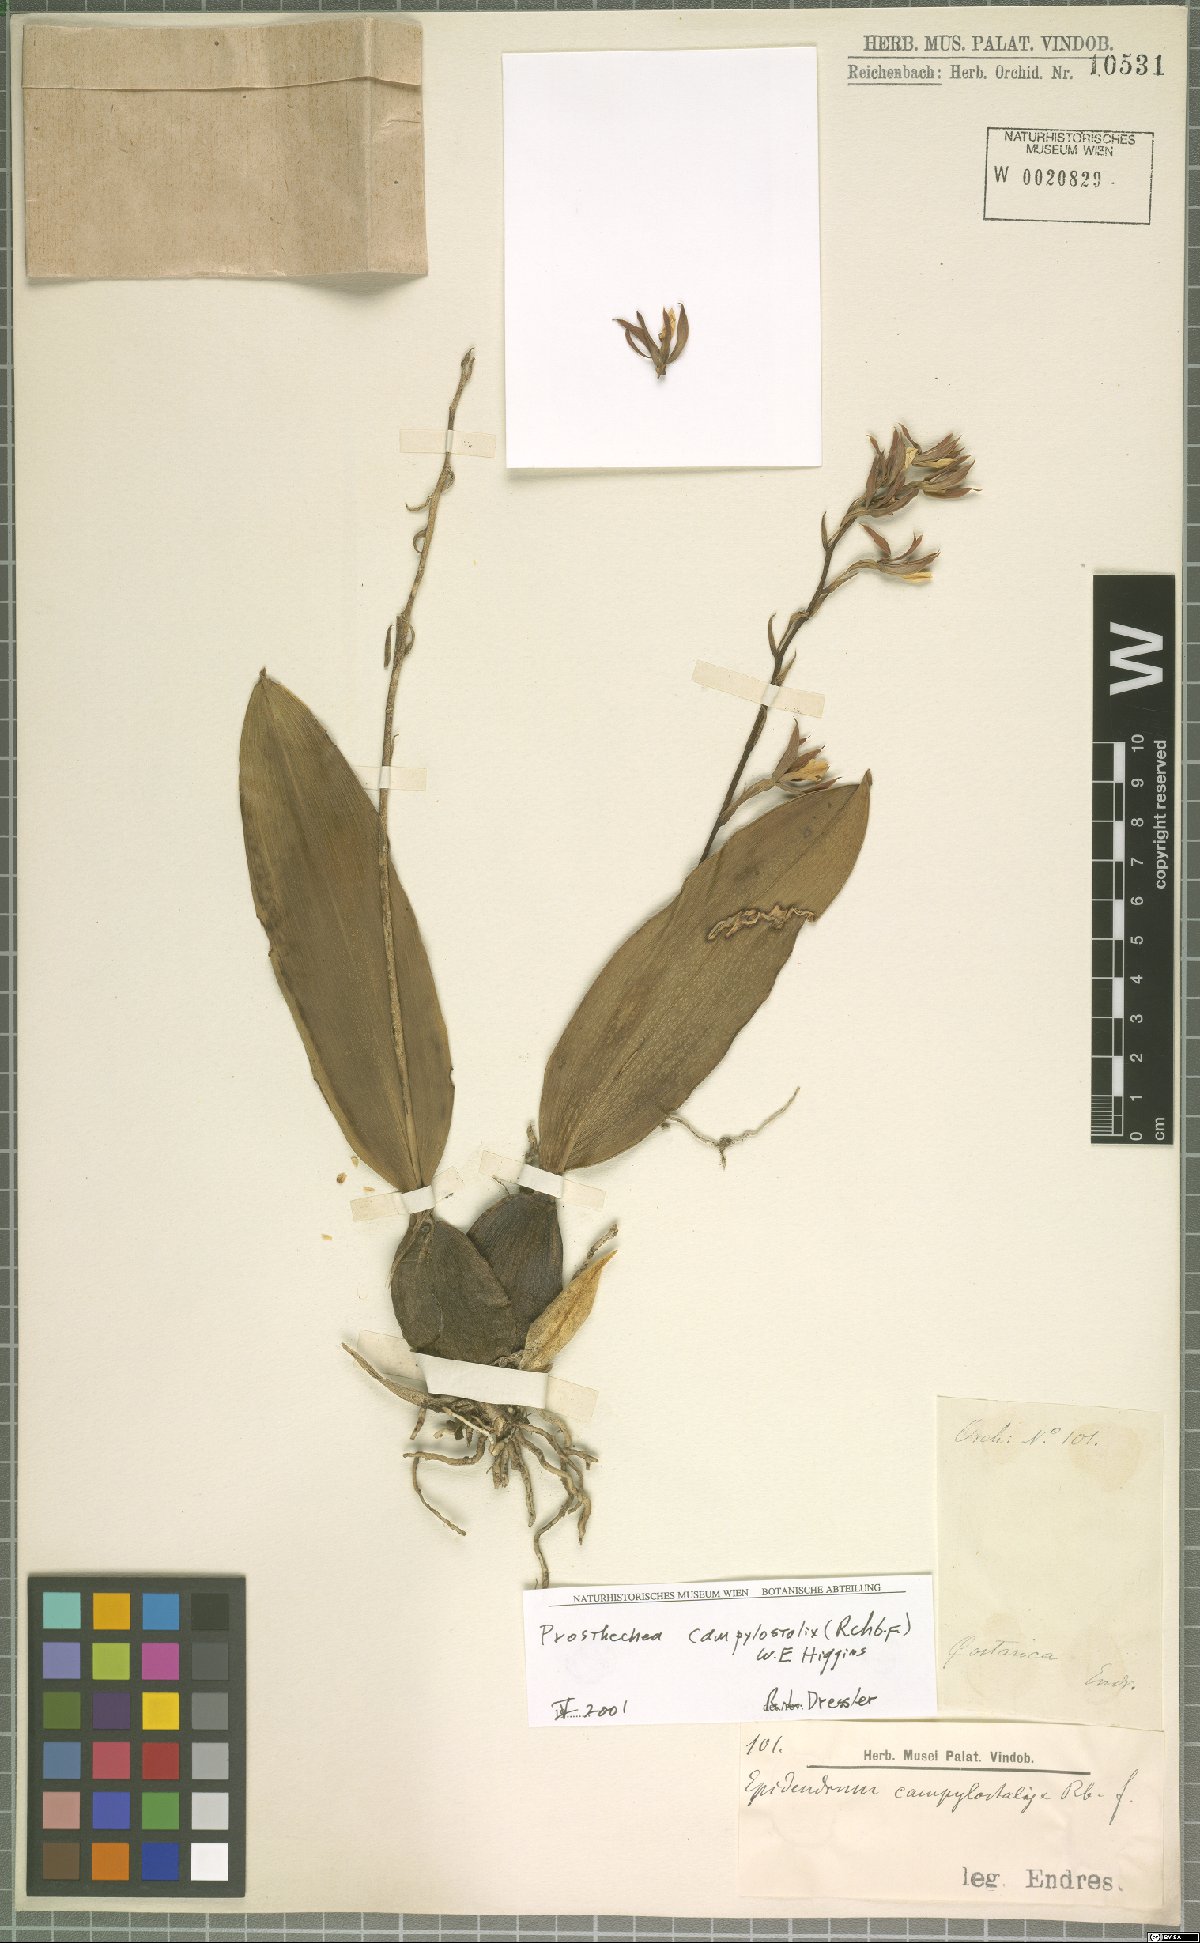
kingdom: Plantae
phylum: Tracheophyta
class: Liliopsida
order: Asparagales
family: Orchidaceae
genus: Prosthechea
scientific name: Prosthechea campylostalix
